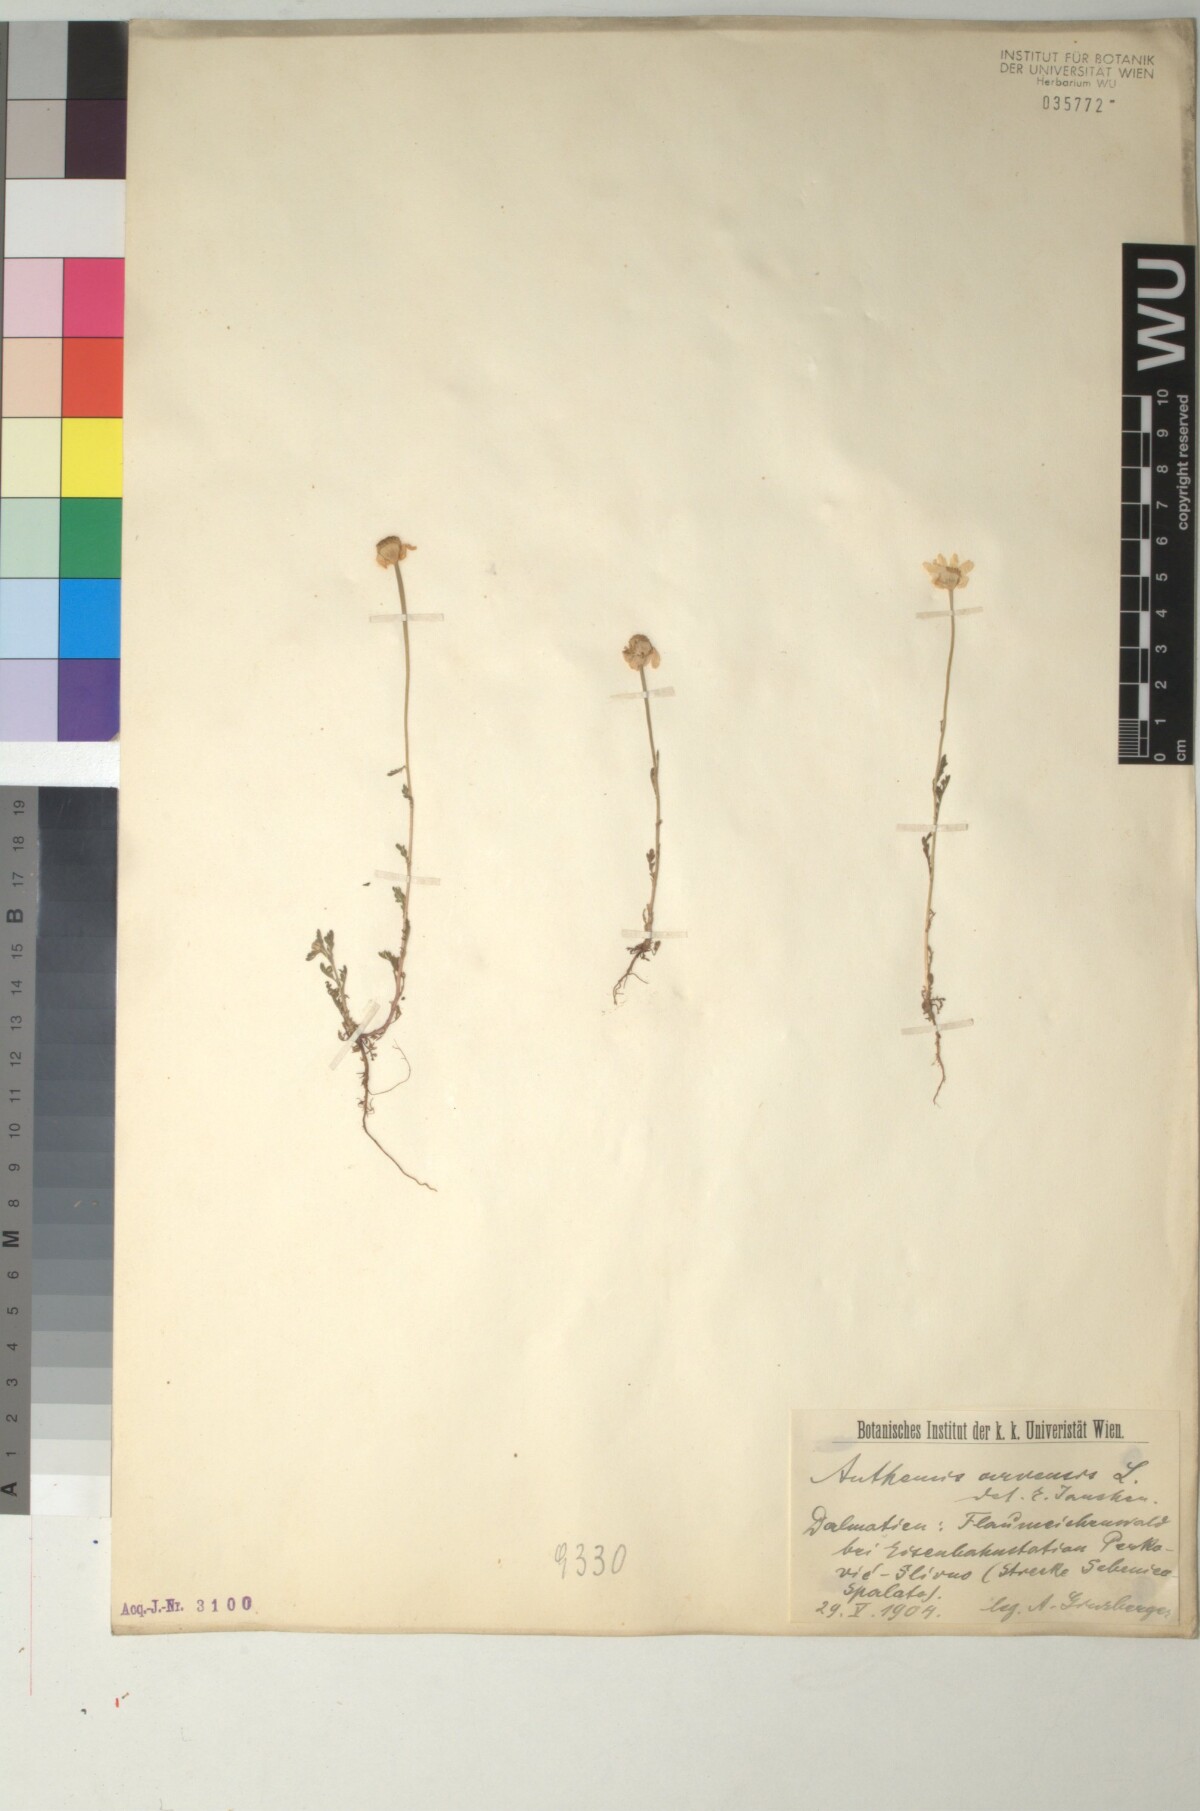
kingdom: Plantae
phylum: Tracheophyta
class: Magnoliopsida
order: Asterales
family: Asteraceae
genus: Anthemis
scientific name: Anthemis arvensis
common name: Corn chamomile
